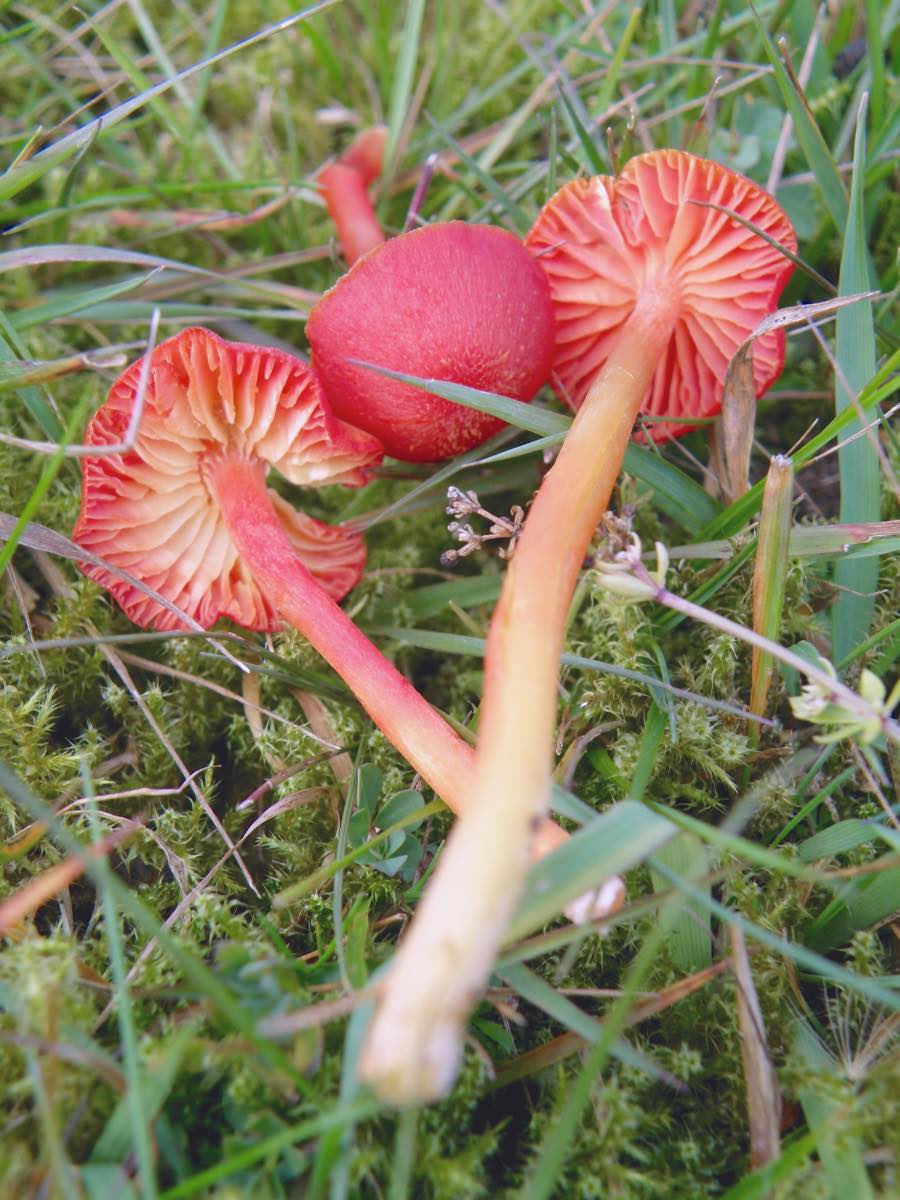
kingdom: Fungi
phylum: Basidiomycota
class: Agaricomycetes
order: Agaricales
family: Hygrophoraceae
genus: Hygrocybe
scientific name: Hygrocybe helobia
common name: hvidløgs-vokshat
